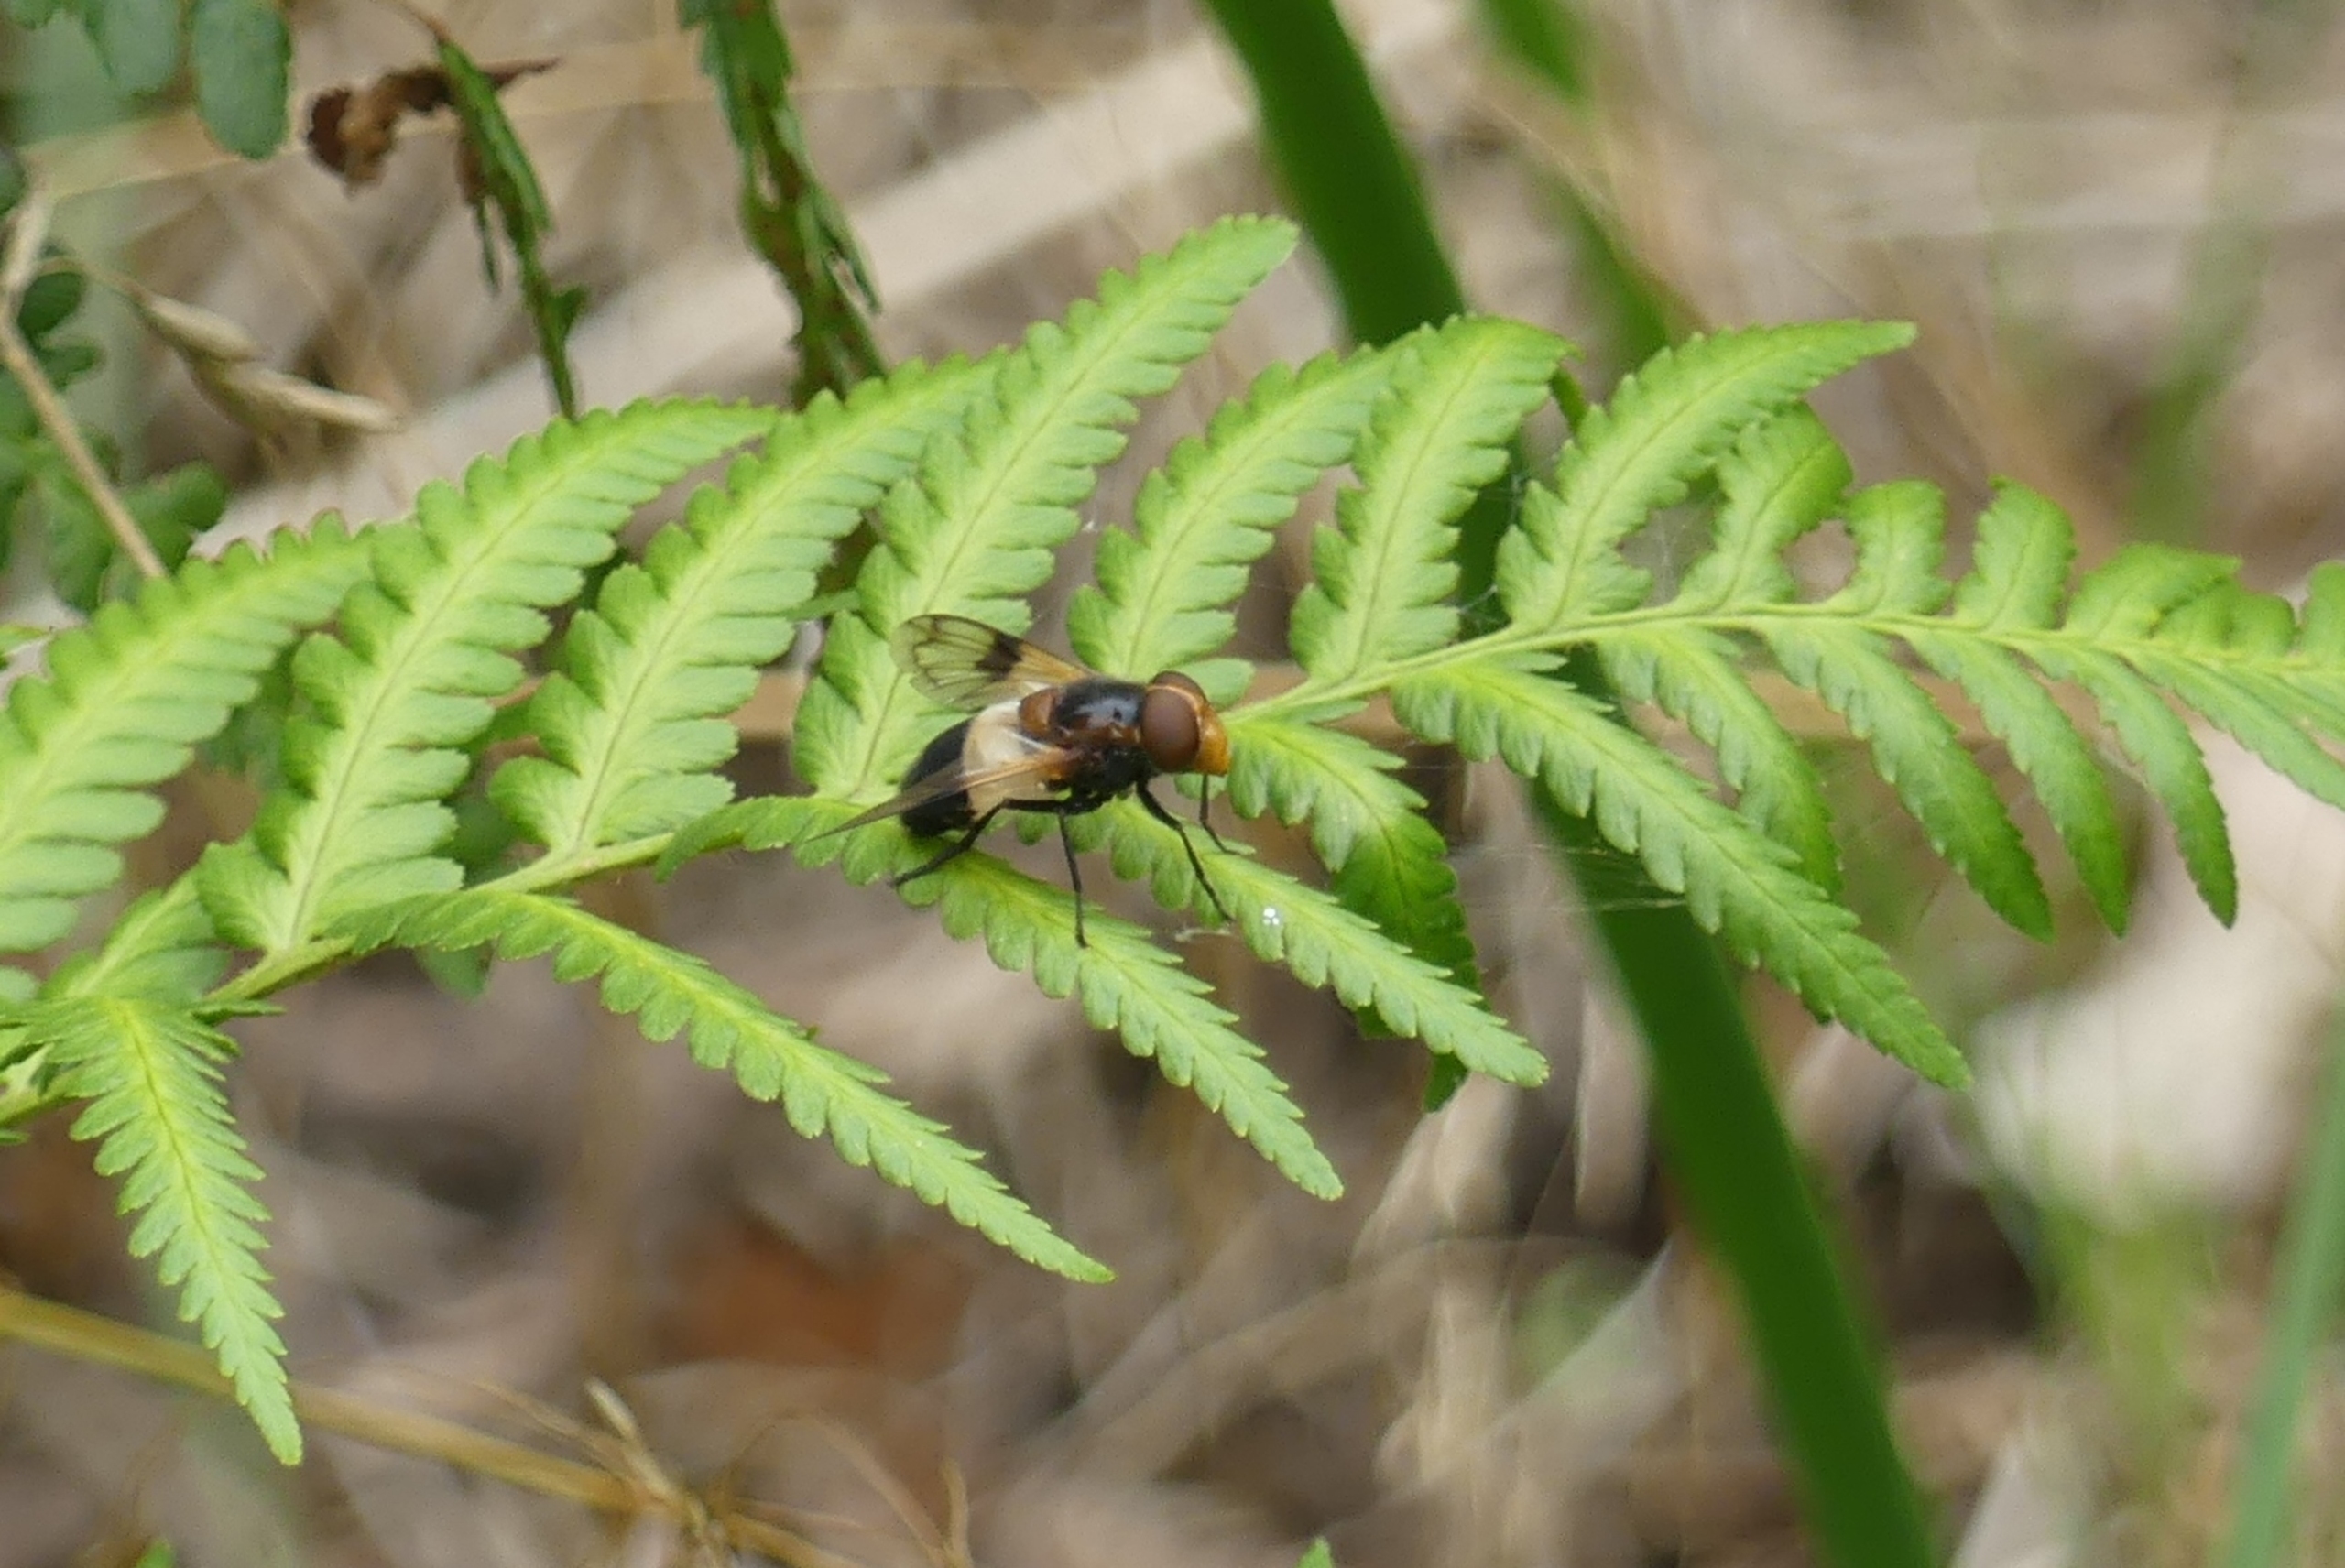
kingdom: Animalia
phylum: Arthropoda
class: Insecta
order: Diptera
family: Syrphidae
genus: Volucella
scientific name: Volucella pellucens
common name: Hvidbåndet humlesvirreflue
